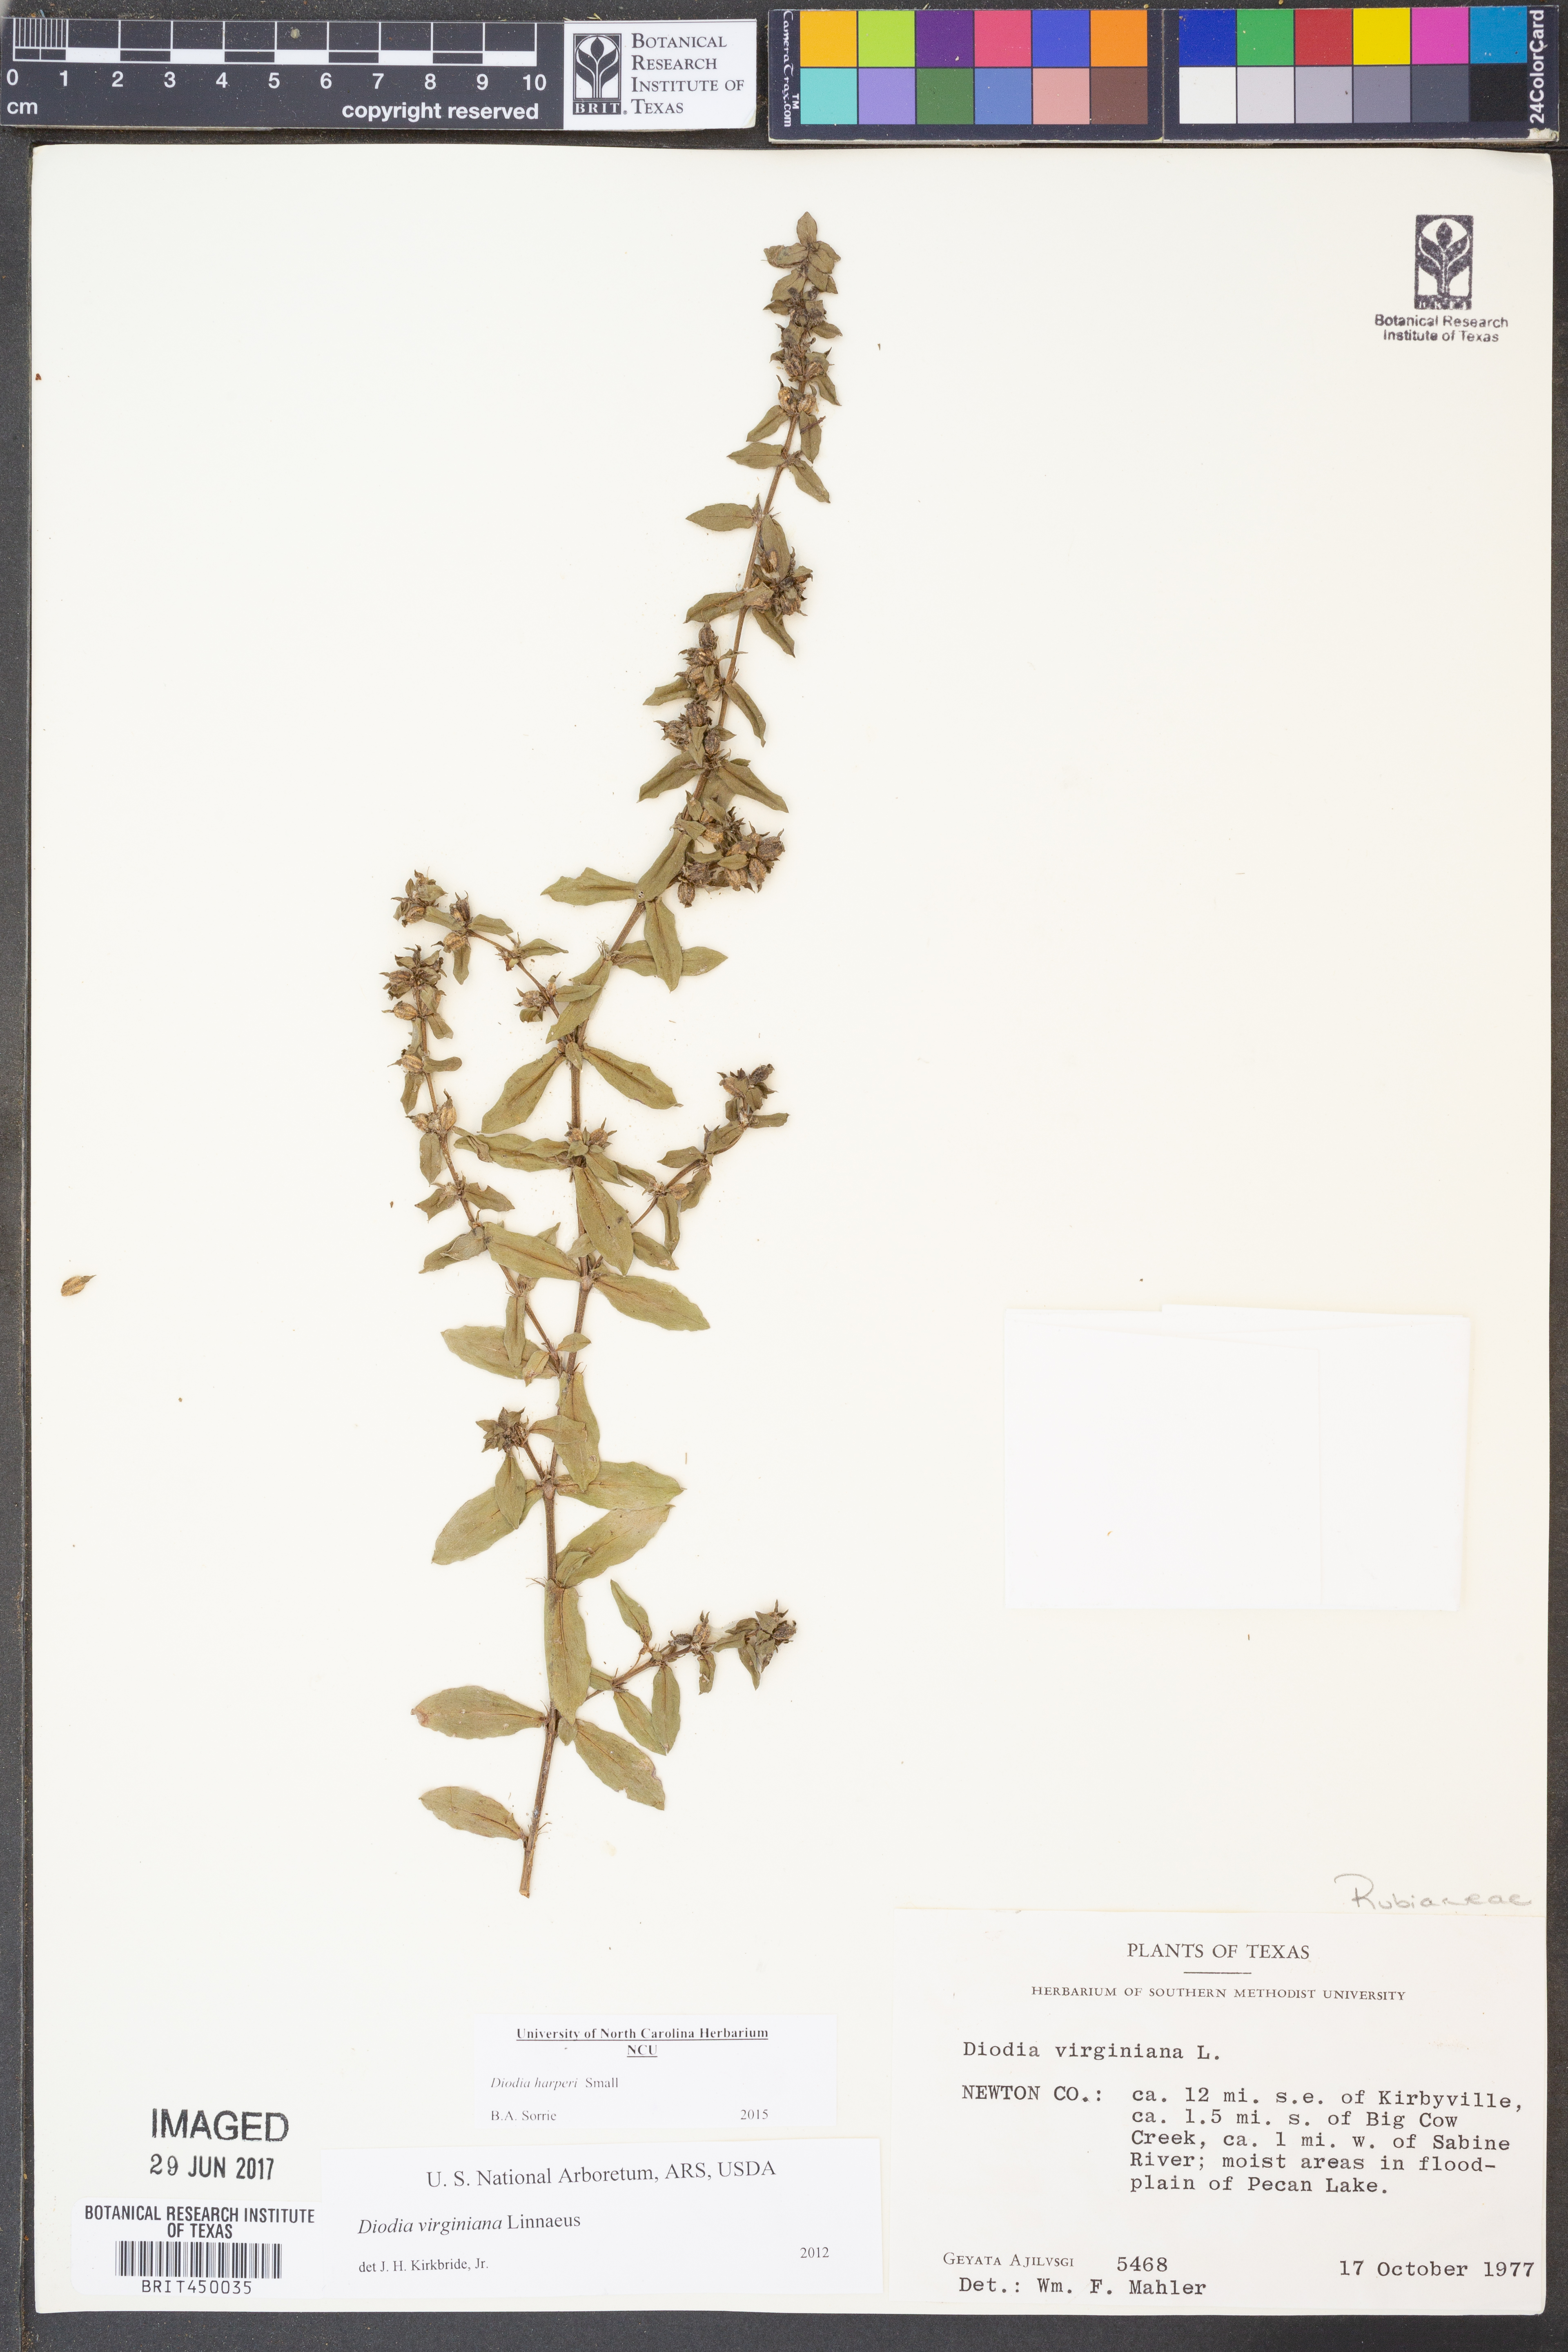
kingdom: Plantae
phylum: Tracheophyta
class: Magnoliopsida
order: Gentianales
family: Rubiaceae
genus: Diodia
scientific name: Diodia virginiana
